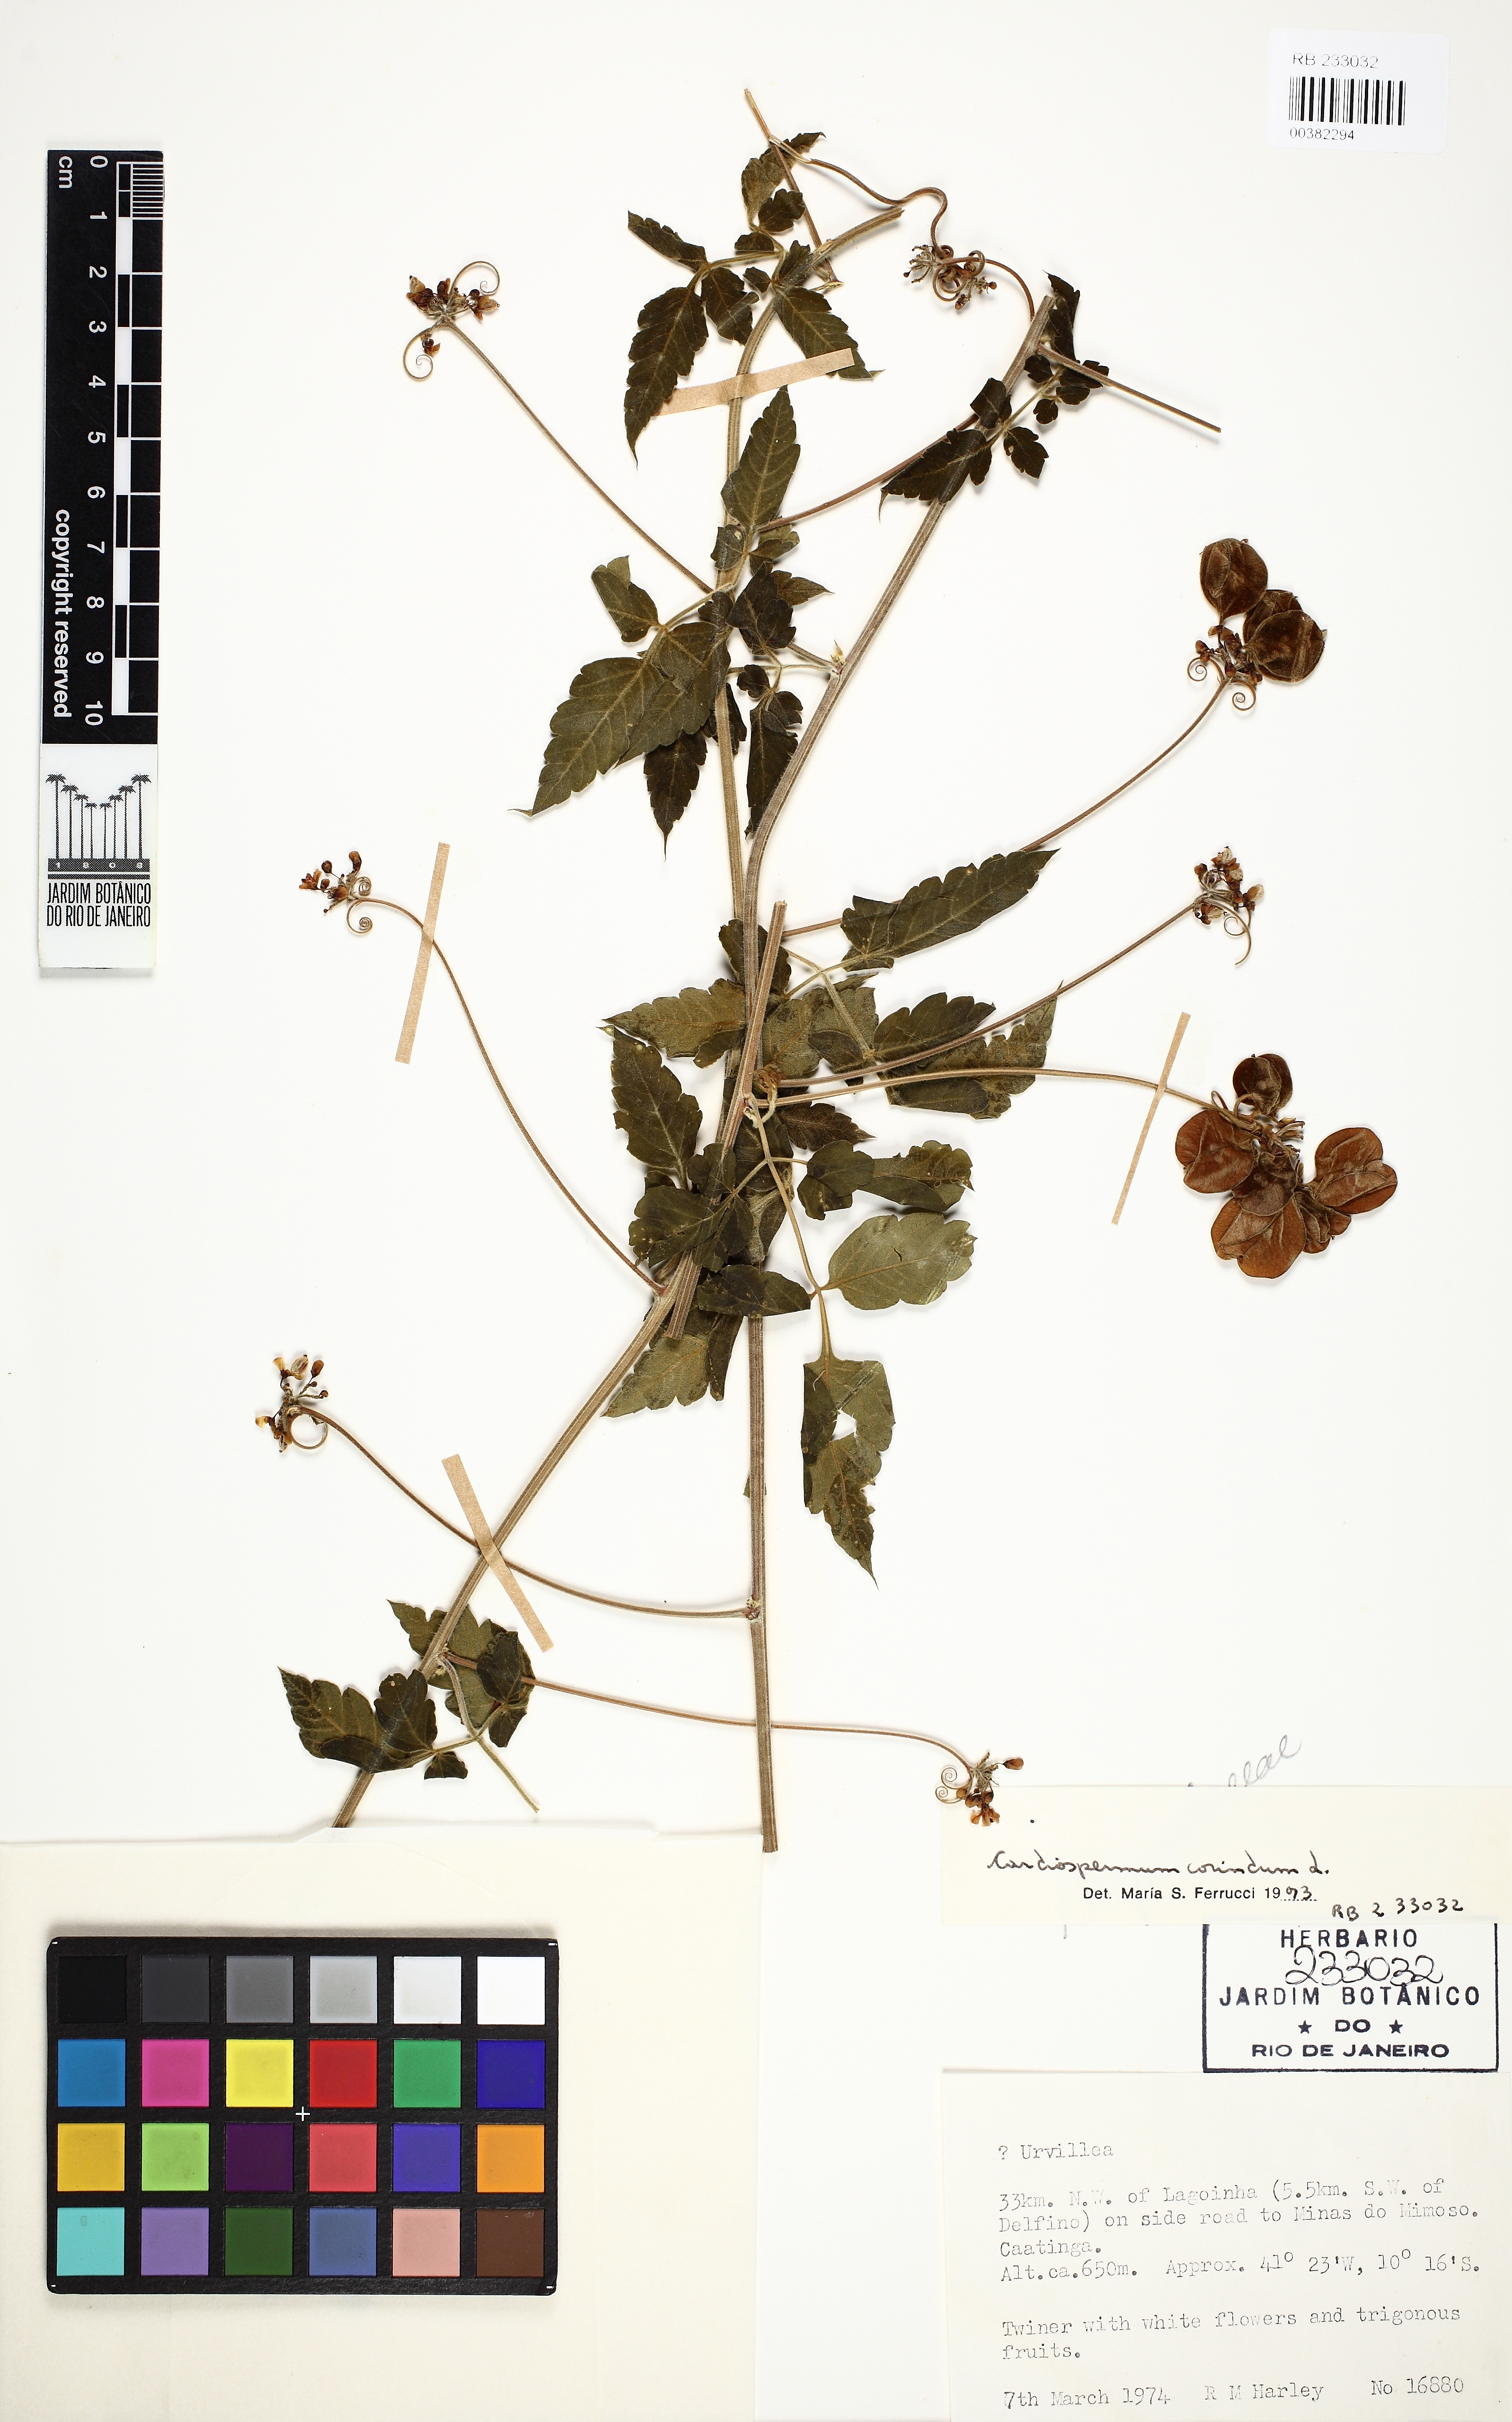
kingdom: Plantae
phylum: Tracheophyta
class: Magnoliopsida
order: Sapindales
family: Sapindaceae
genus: Cardiospermum
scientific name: Cardiospermum corindum
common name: Faux persil
